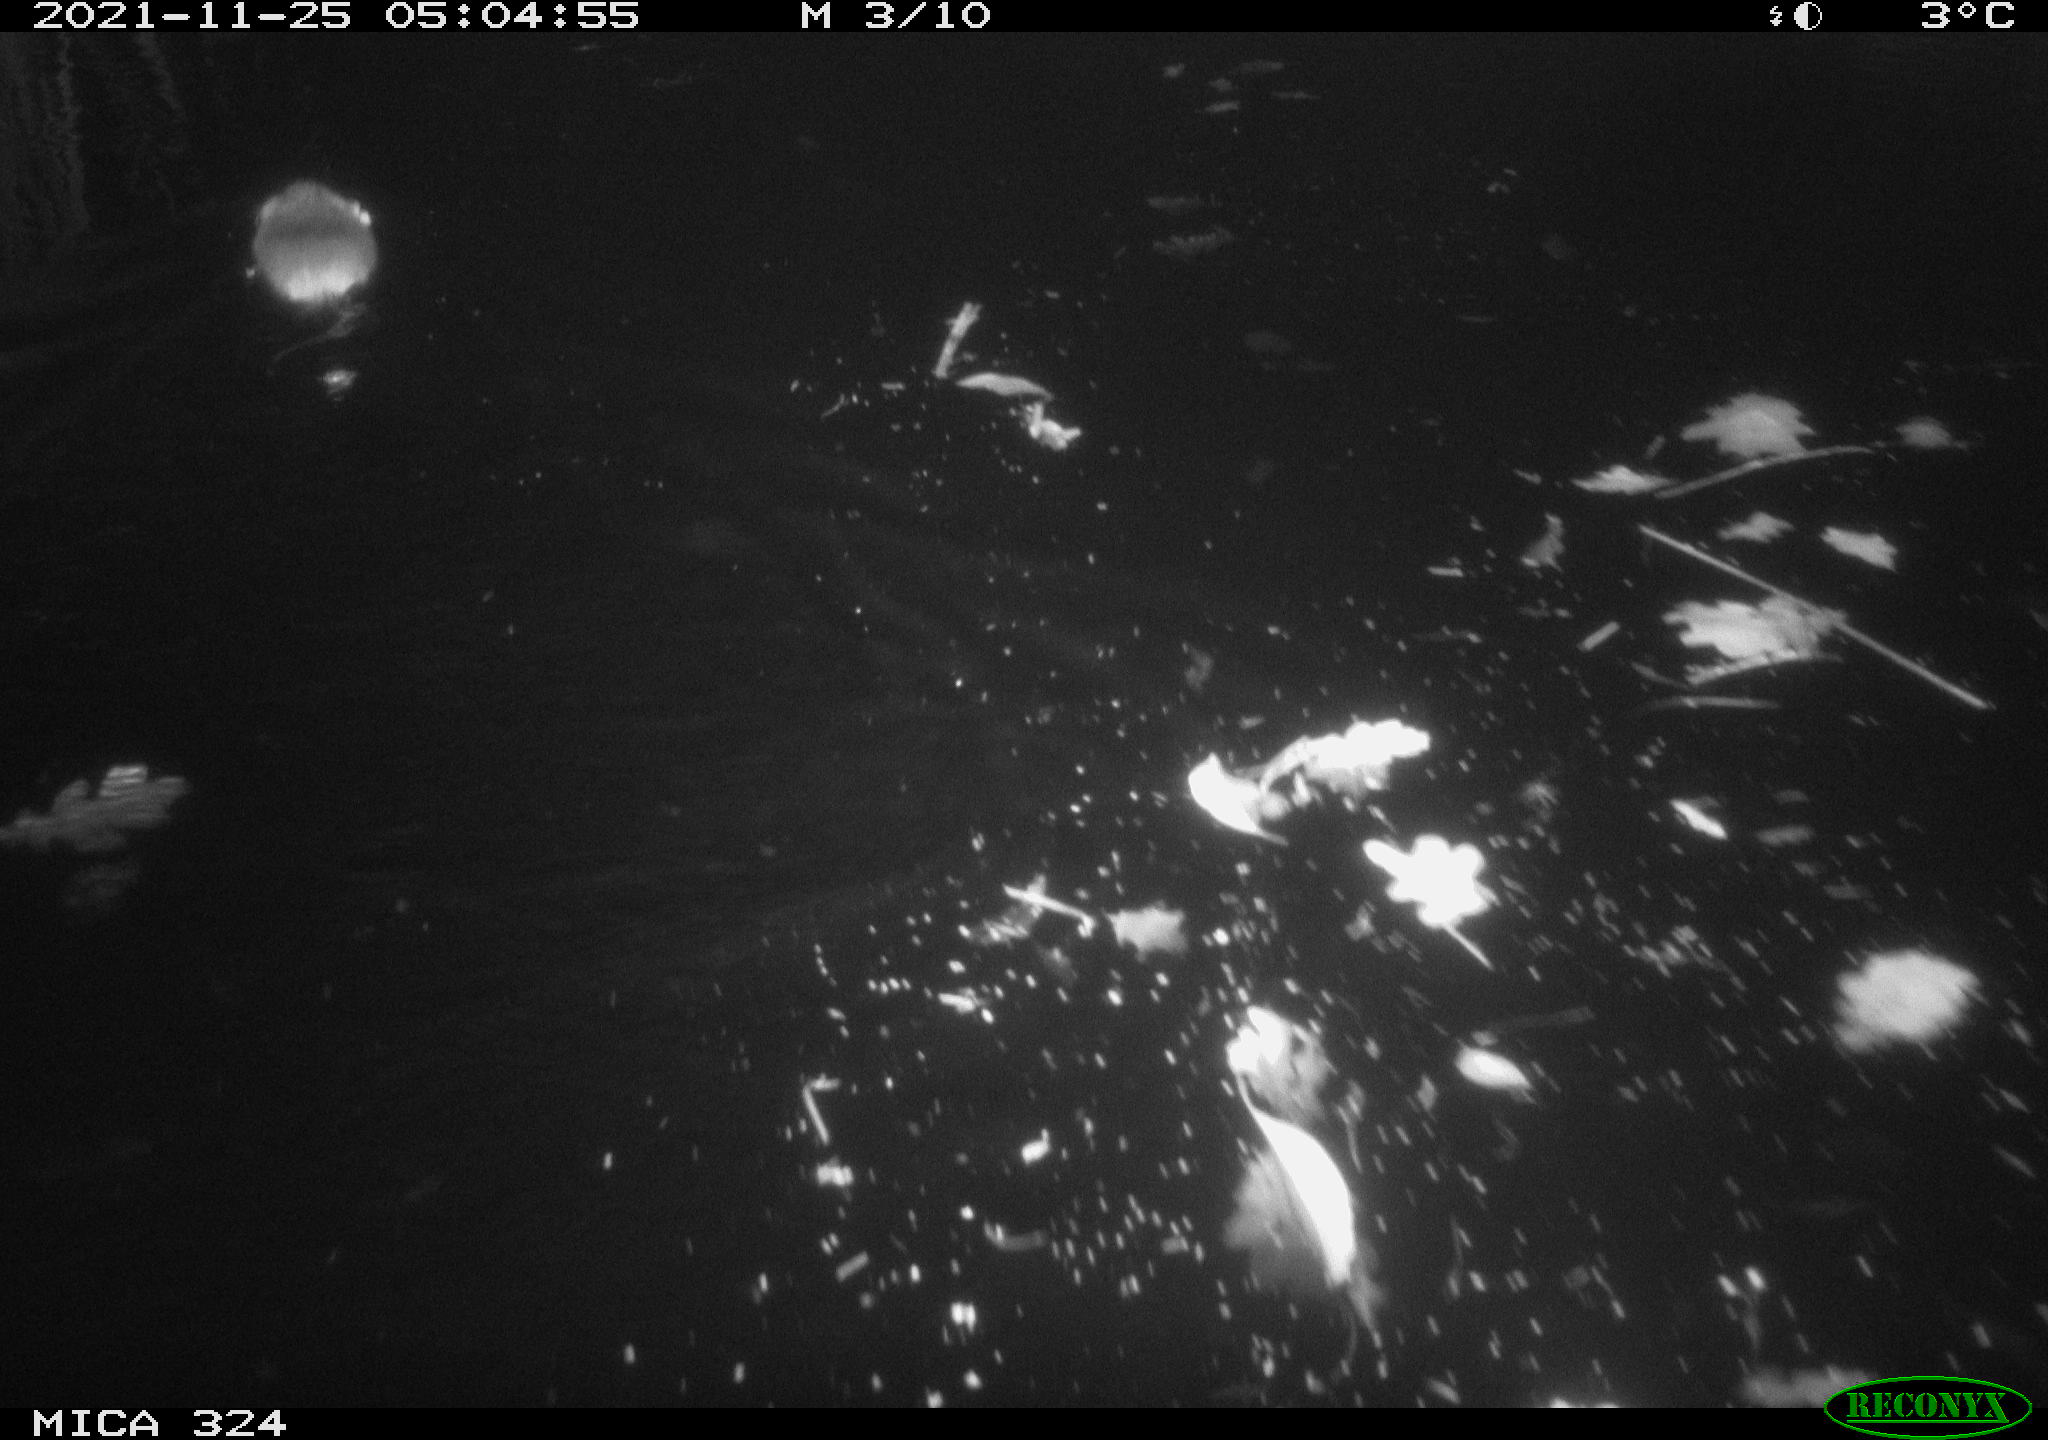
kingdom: Animalia
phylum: Chordata
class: Mammalia
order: Rodentia
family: Cricetidae
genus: Ondatra
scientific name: Ondatra zibethicus
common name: Muskrat
